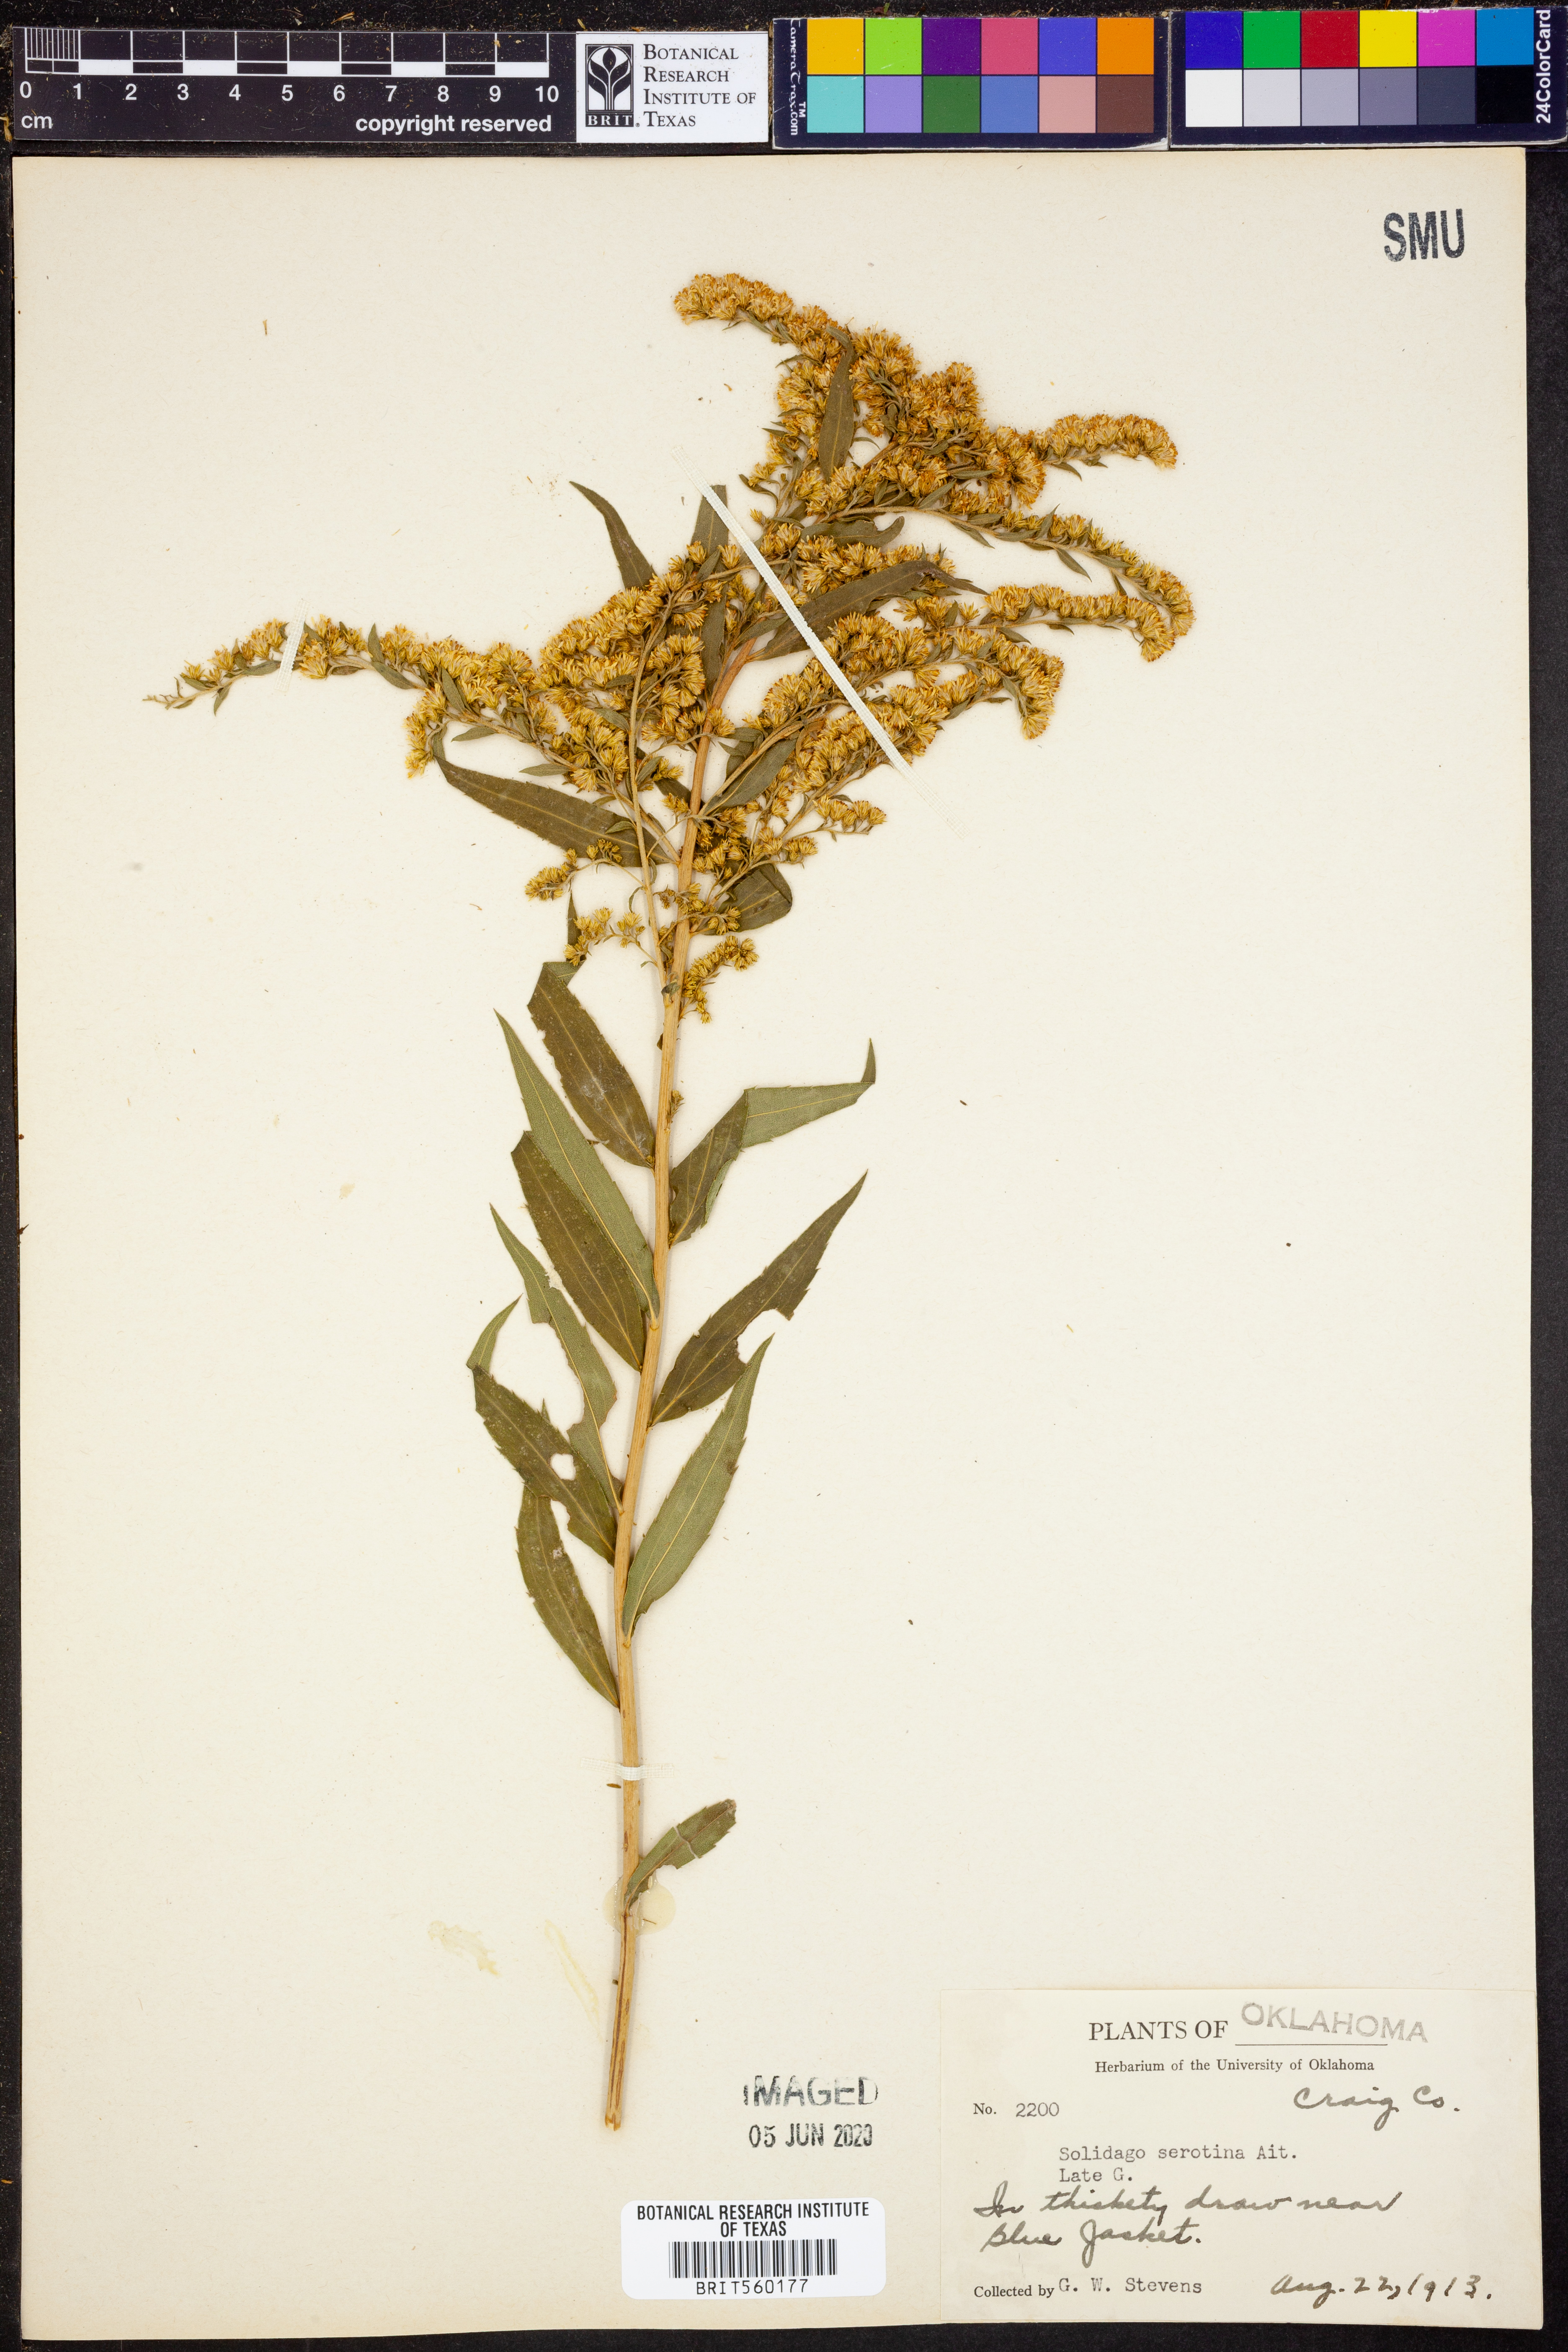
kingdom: Plantae
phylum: Tracheophyta
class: Magnoliopsida
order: Asterales
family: Asteraceae
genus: Solidago
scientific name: Solidago gigantea
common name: Giant goldenrod
